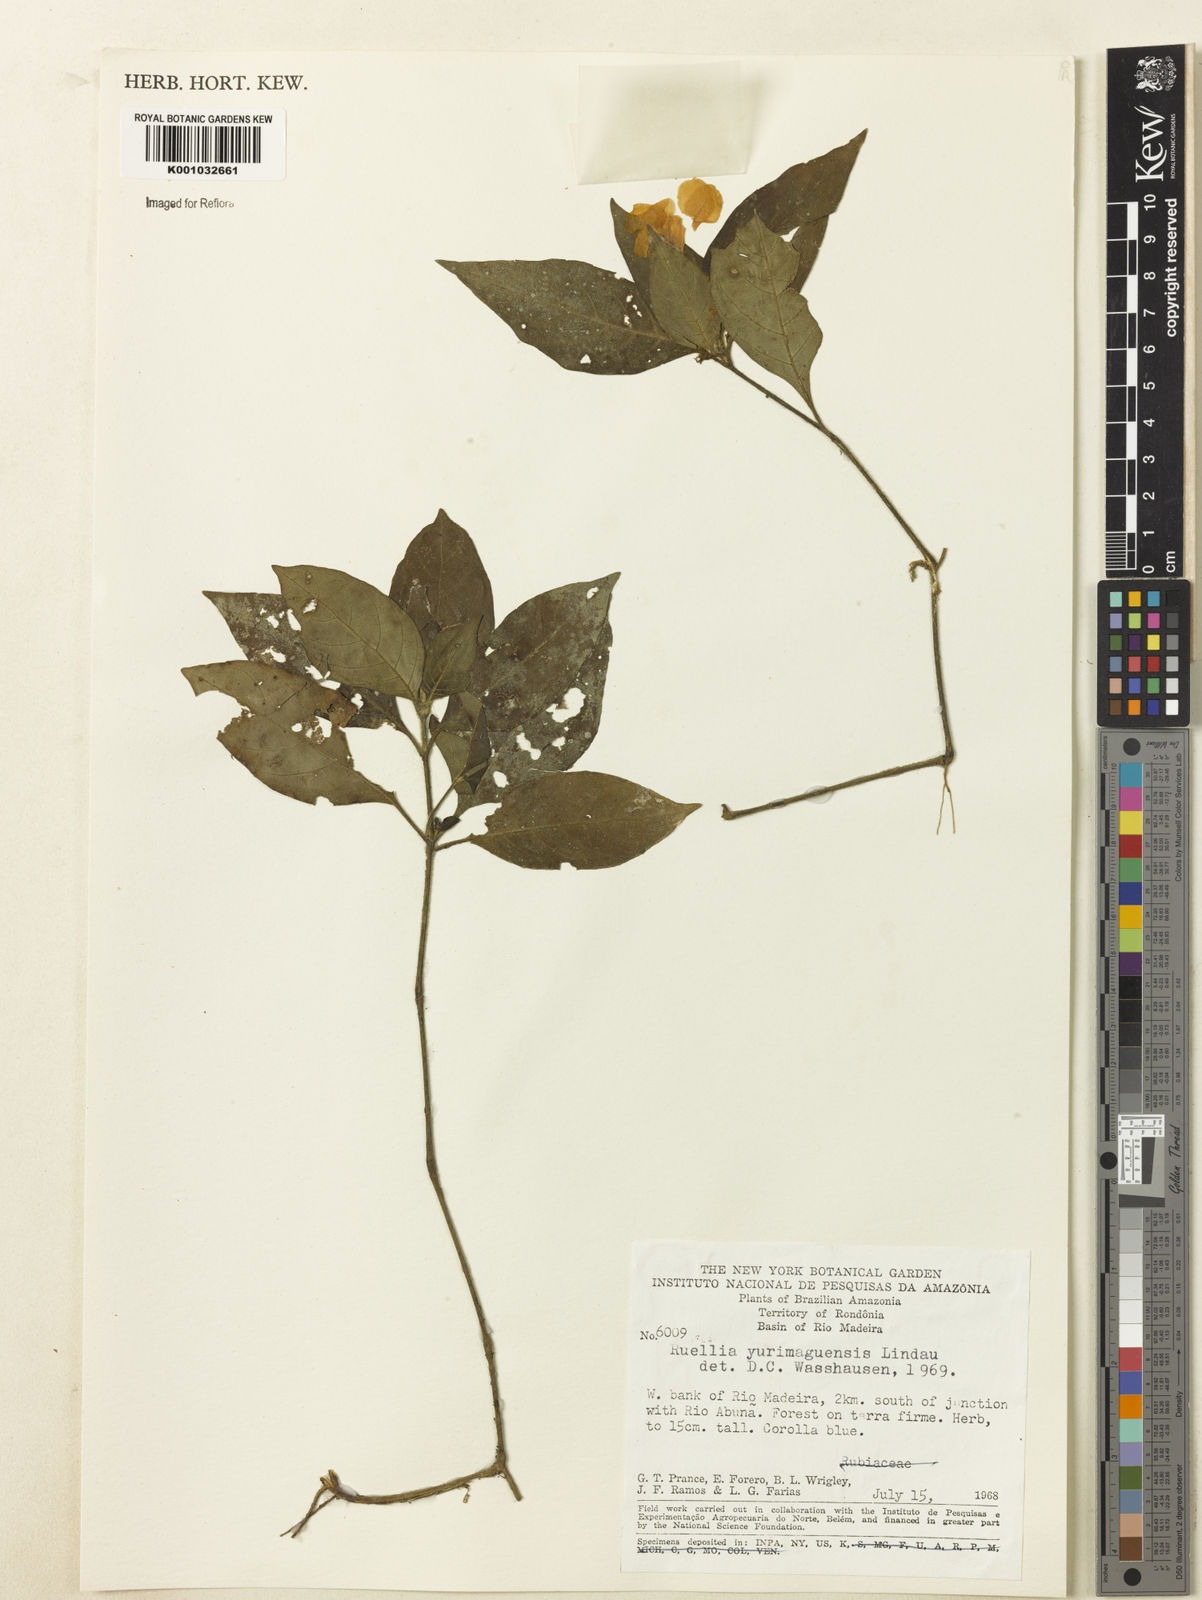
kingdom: Plantae
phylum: Tracheophyta
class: Magnoliopsida
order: Lamiales
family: Acanthaceae
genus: Ruellia
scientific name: Ruellia yurimaguensis
